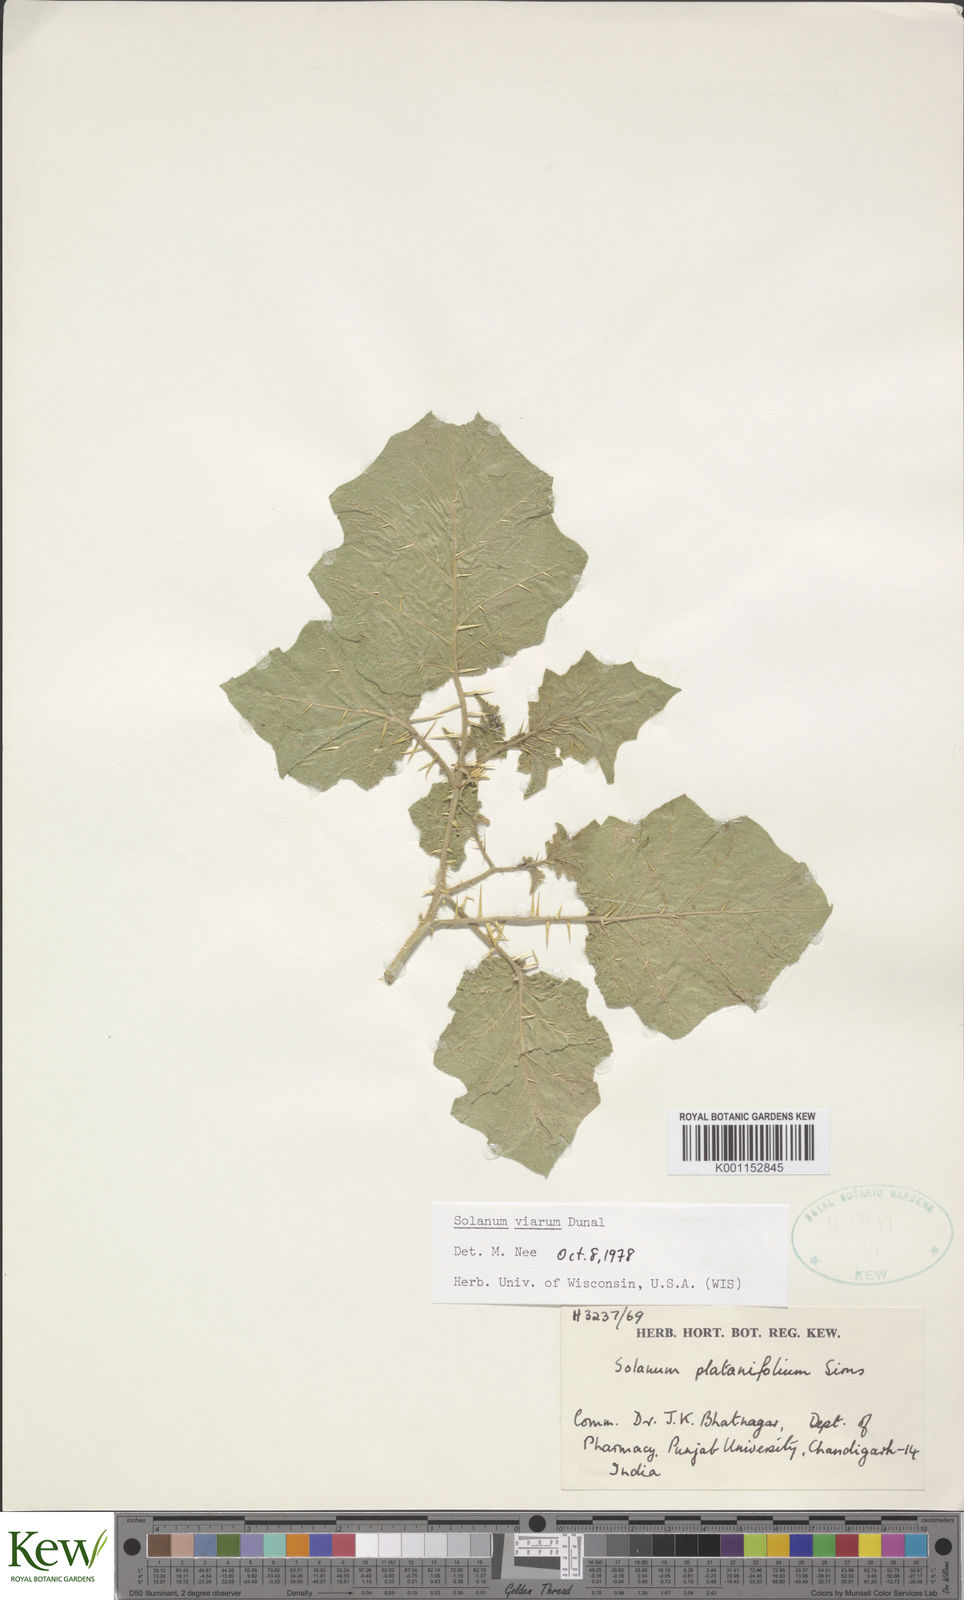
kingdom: Plantae
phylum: Tracheophyta
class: Magnoliopsida
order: Solanales
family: Solanaceae
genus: Solanum
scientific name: Solanum viarum
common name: Tropical soda apple
